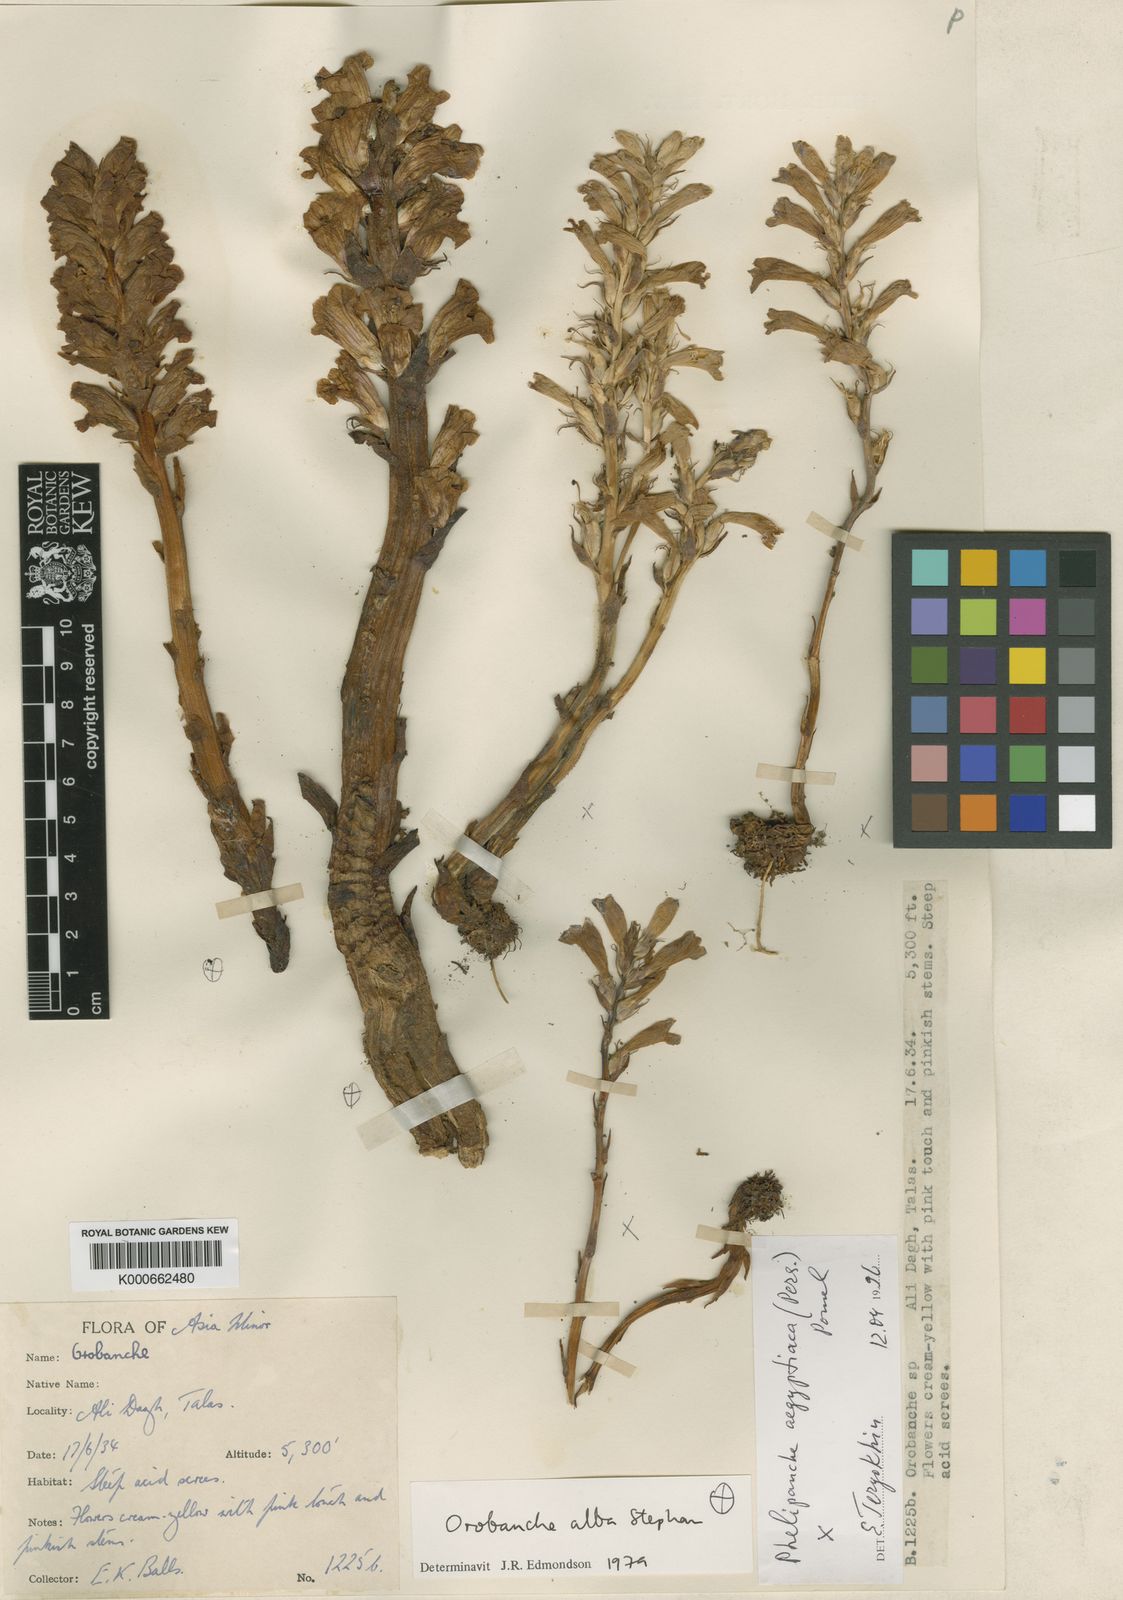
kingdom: Plantae
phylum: Tracheophyta
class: Magnoliopsida
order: Lamiales
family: Orobanchaceae
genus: Phelipanche
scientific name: Phelipanche aegyptiaca
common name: Egyptian broomrape
